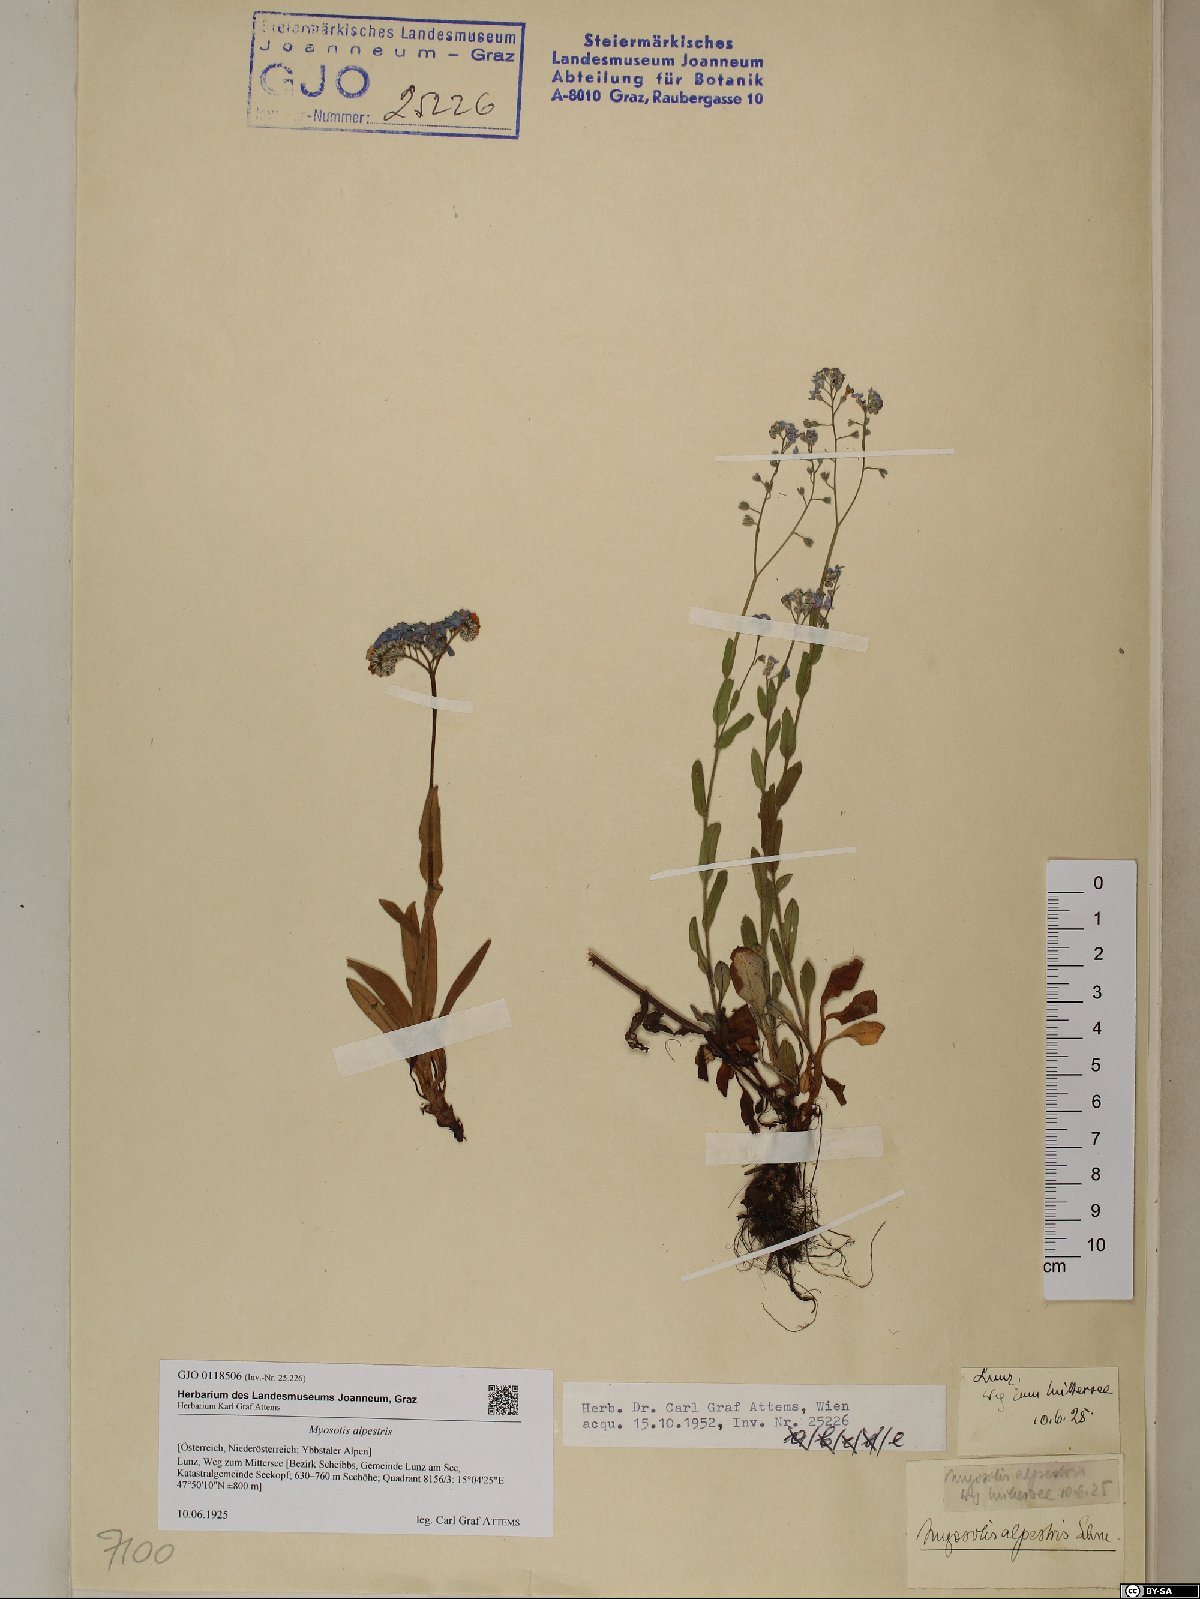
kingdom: Plantae
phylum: Tracheophyta
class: Magnoliopsida
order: Boraginales
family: Boraginaceae
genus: Myosotis
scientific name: Myosotis alpestris
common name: Alpine forget-me-not
